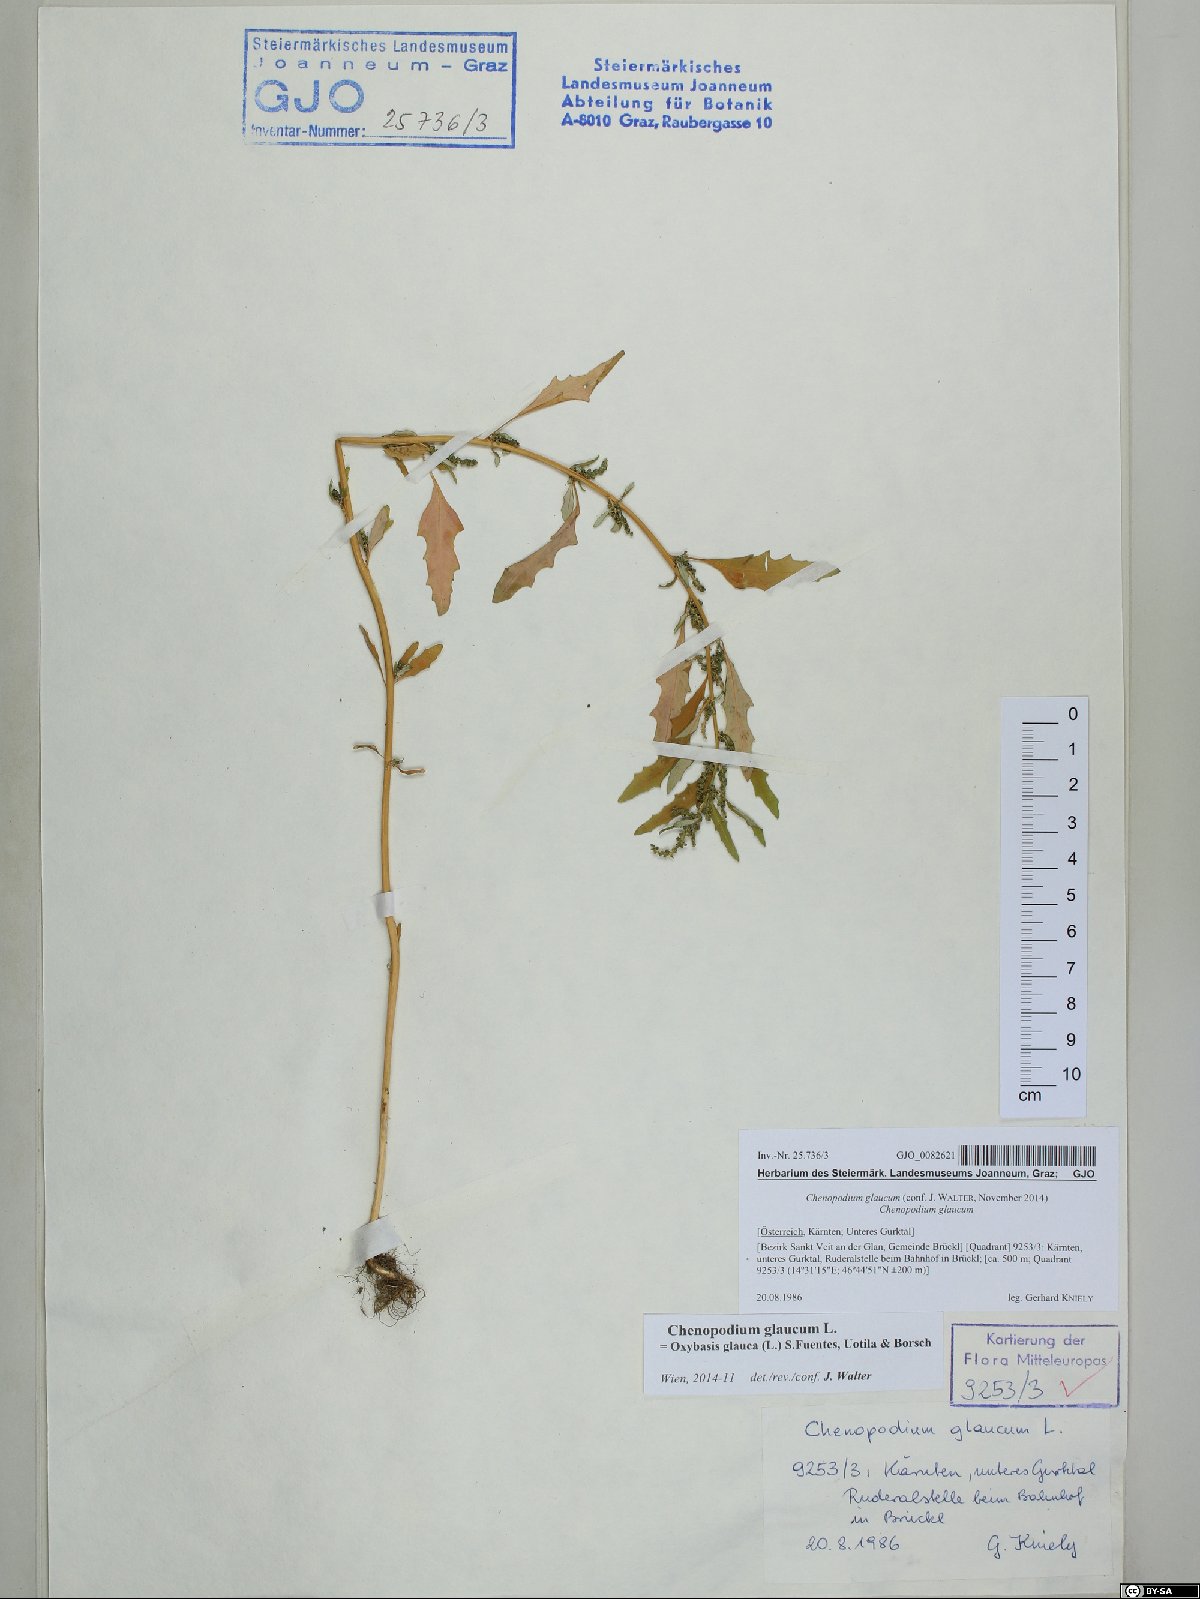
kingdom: Plantae
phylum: Tracheophyta
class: Magnoliopsida
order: Caryophyllales
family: Amaranthaceae
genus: Oxybasis
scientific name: Oxybasis glauca
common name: Glaucous goosefoot
